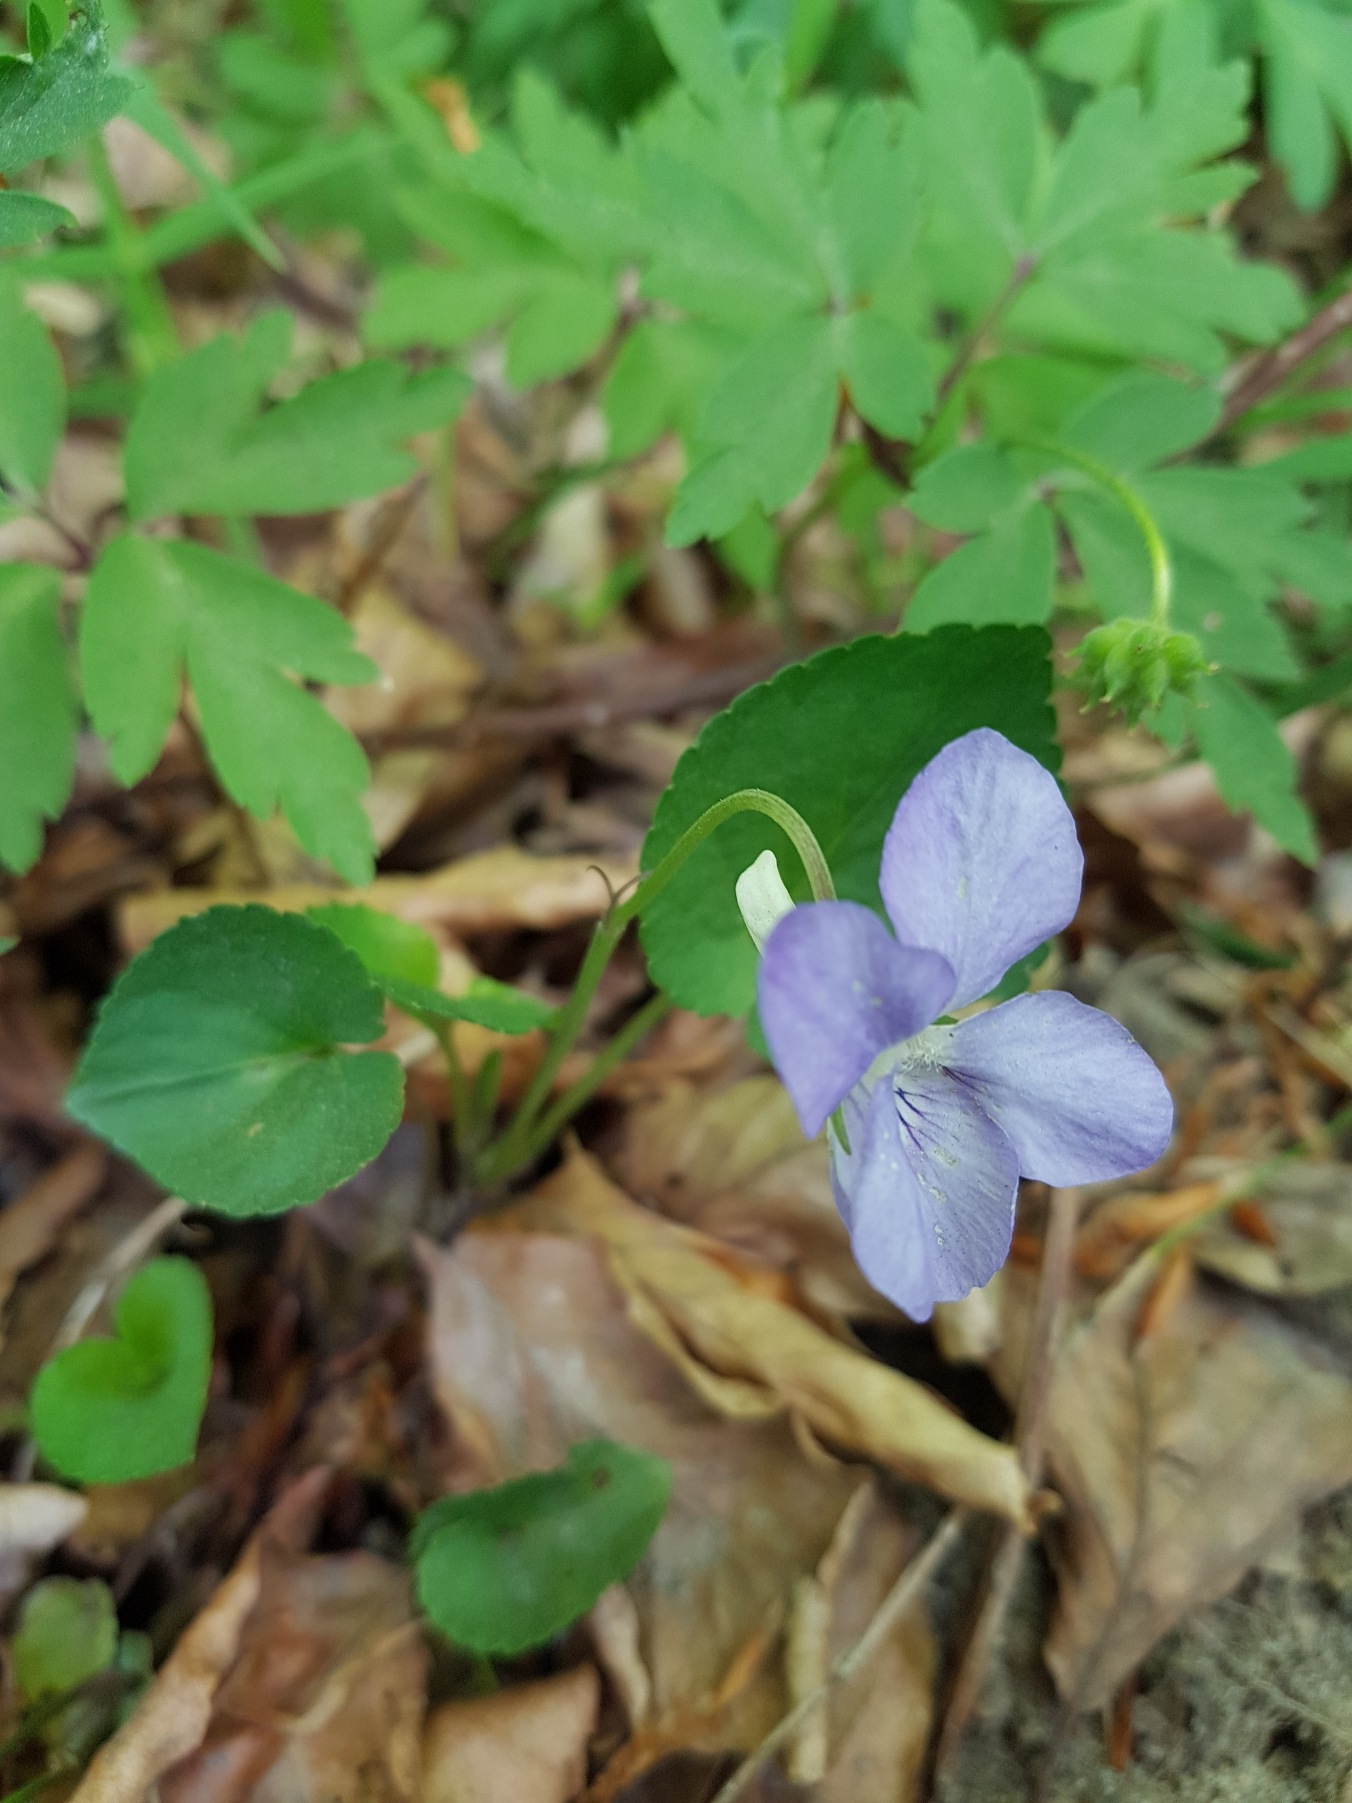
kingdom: Plantae
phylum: Tracheophyta
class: Magnoliopsida
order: Malpighiales
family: Violaceae
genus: Viola
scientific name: Viola riviniana
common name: Krat-viol
